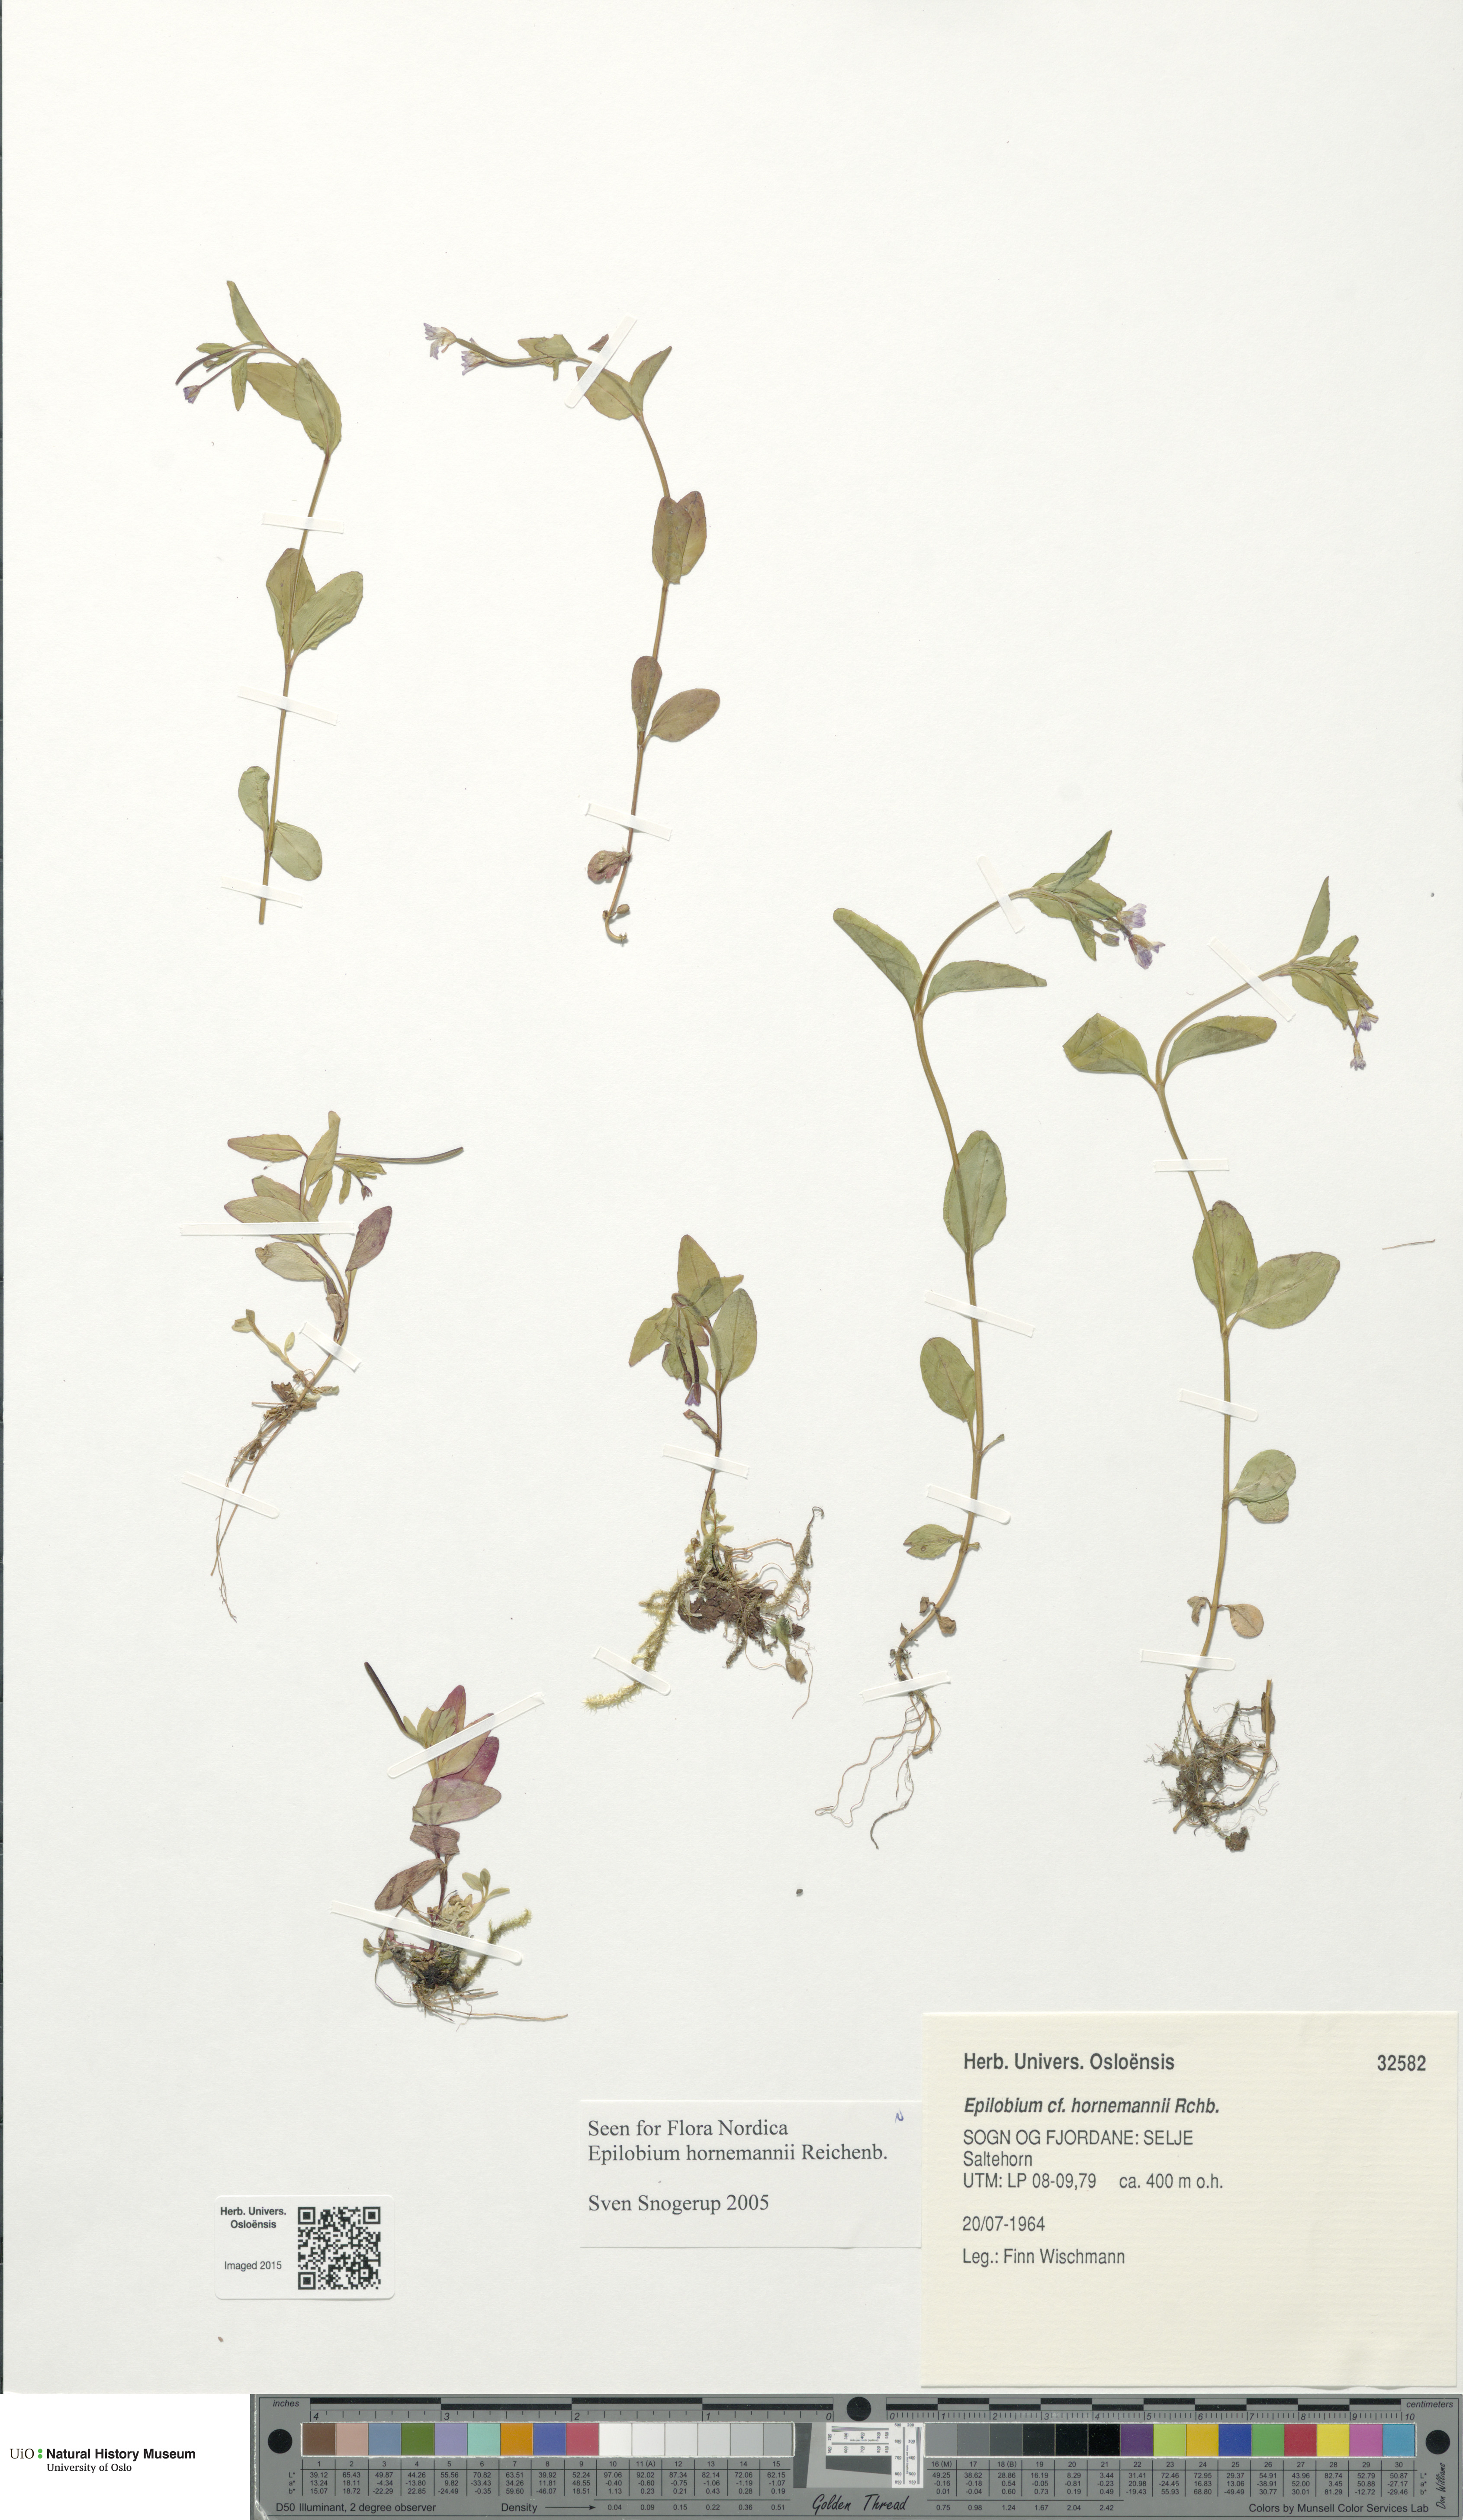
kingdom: Plantae
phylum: Tracheophyta
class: Magnoliopsida
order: Myrtales
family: Onagraceae
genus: Epilobium
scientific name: Epilobium hornemannii
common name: Hornemann's willowherb
